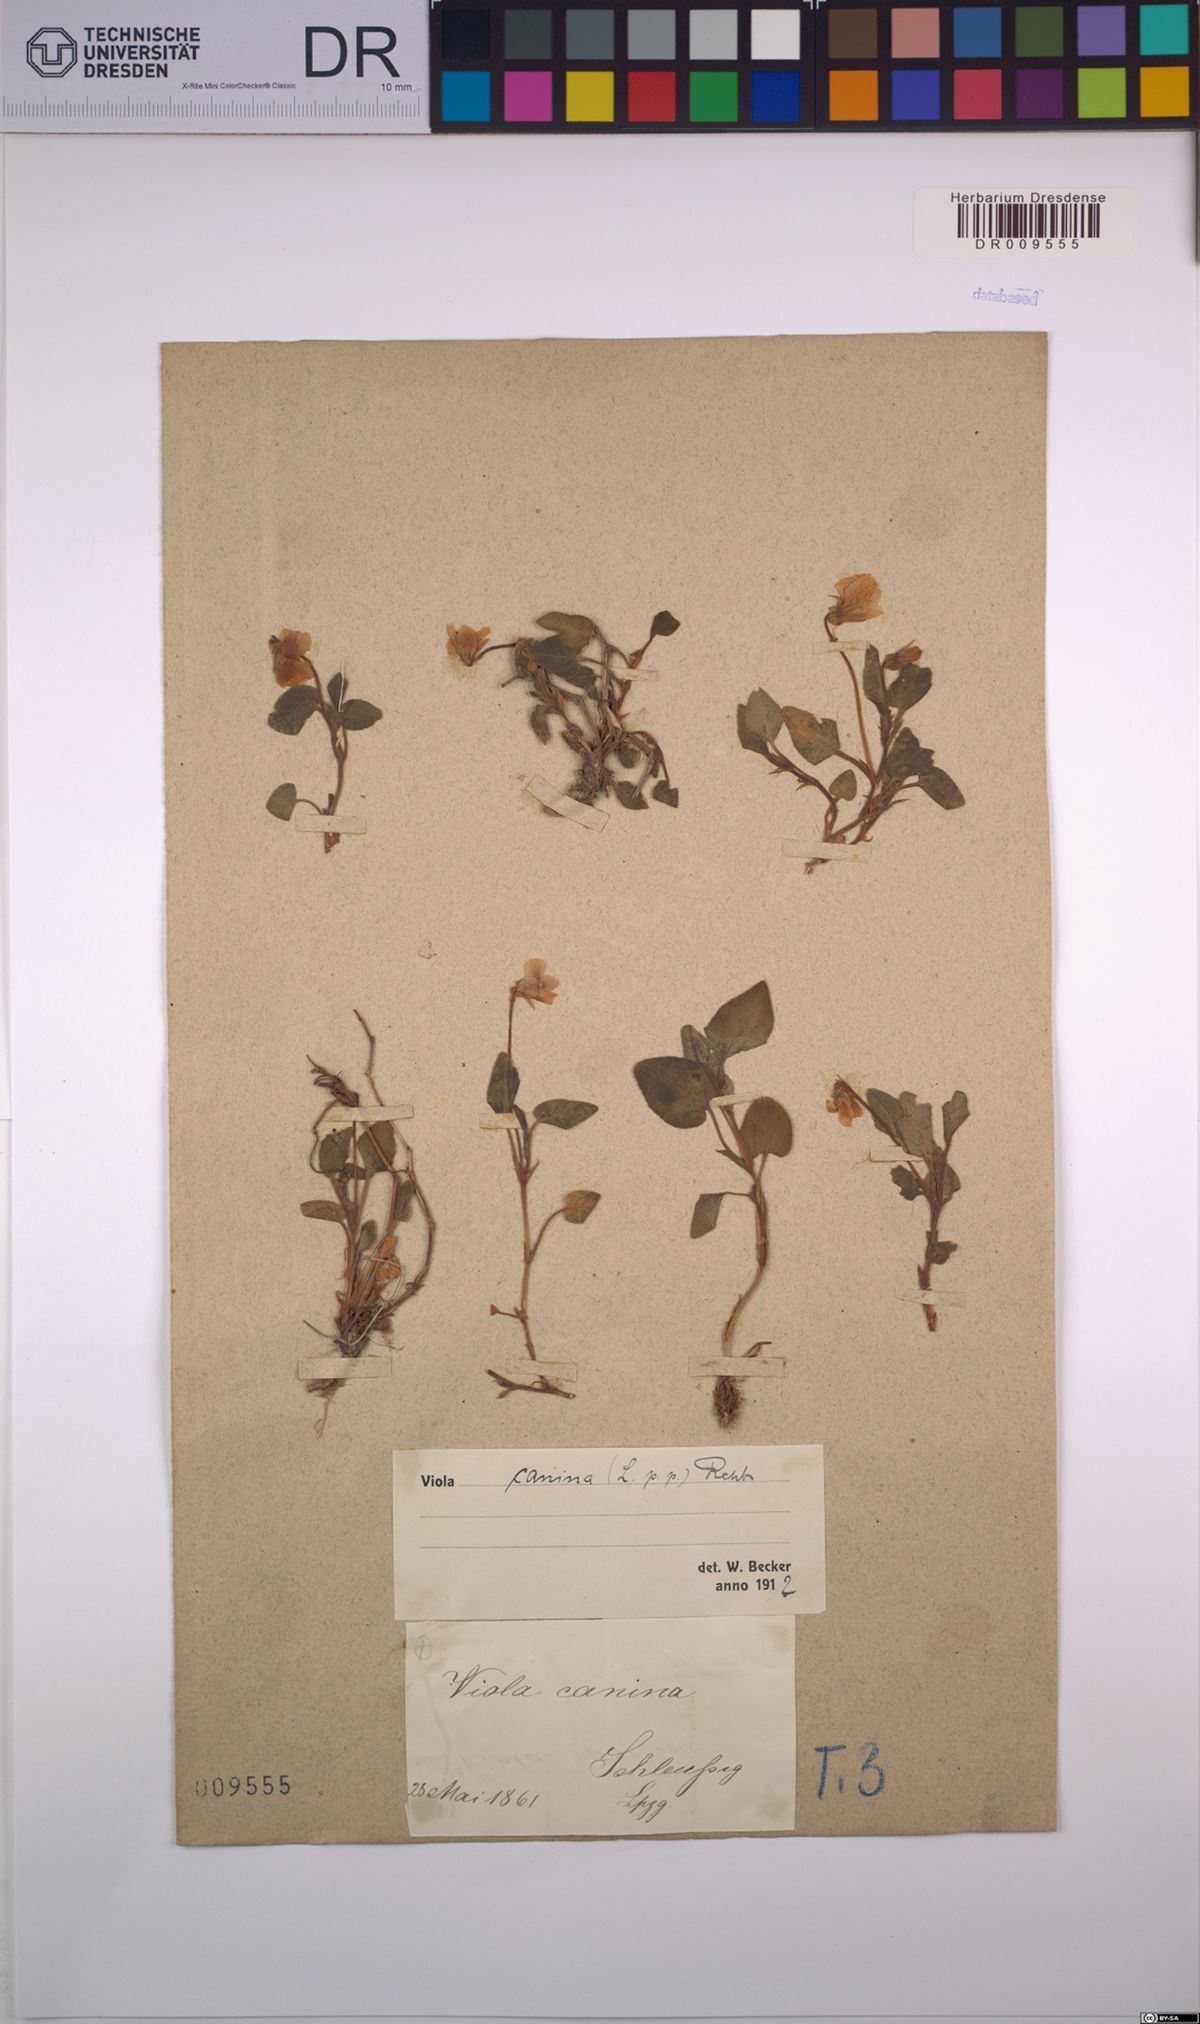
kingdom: Plantae
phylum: Tracheophyta
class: Magnoliopsida
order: Malpighiales
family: Violaceae
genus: Viola
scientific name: Viola canina
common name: Heath dog-violet
